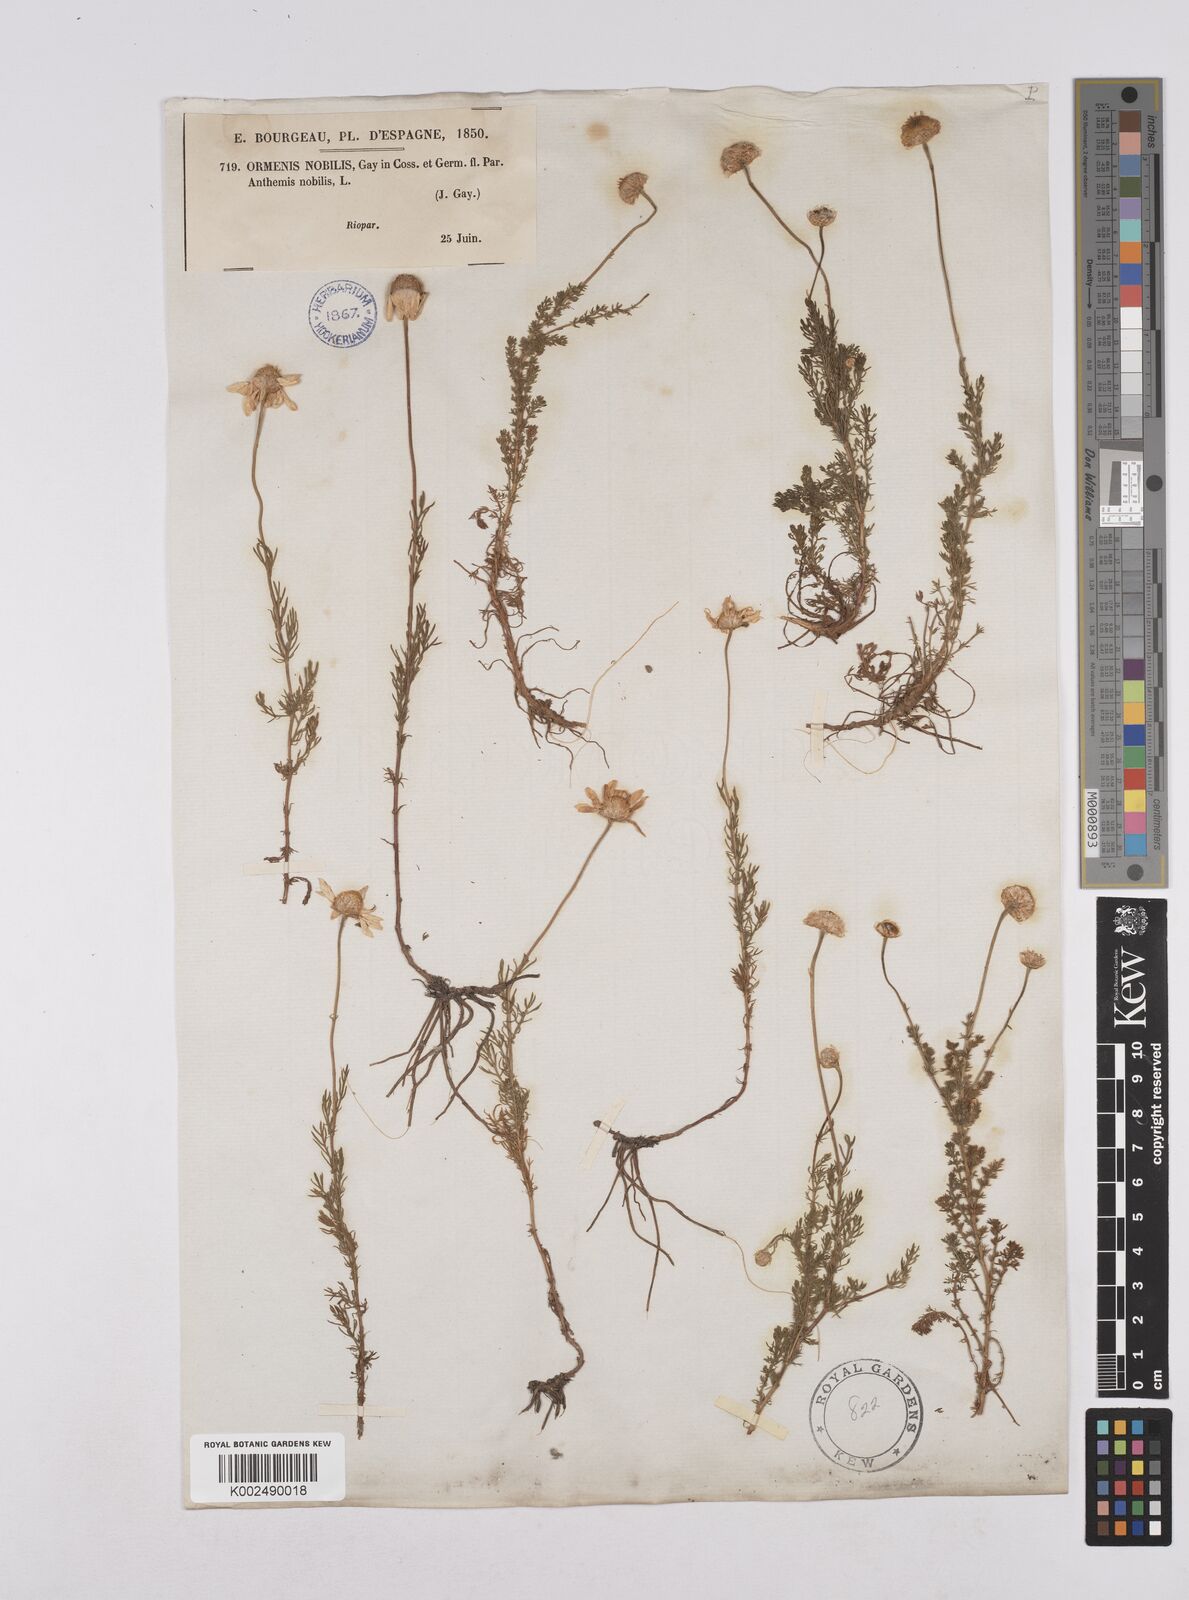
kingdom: Plantae
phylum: Tracheophyta
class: Magnoliopsida
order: Asterales
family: Asteraceae
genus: Chamaemelum
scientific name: Chamaemelum
